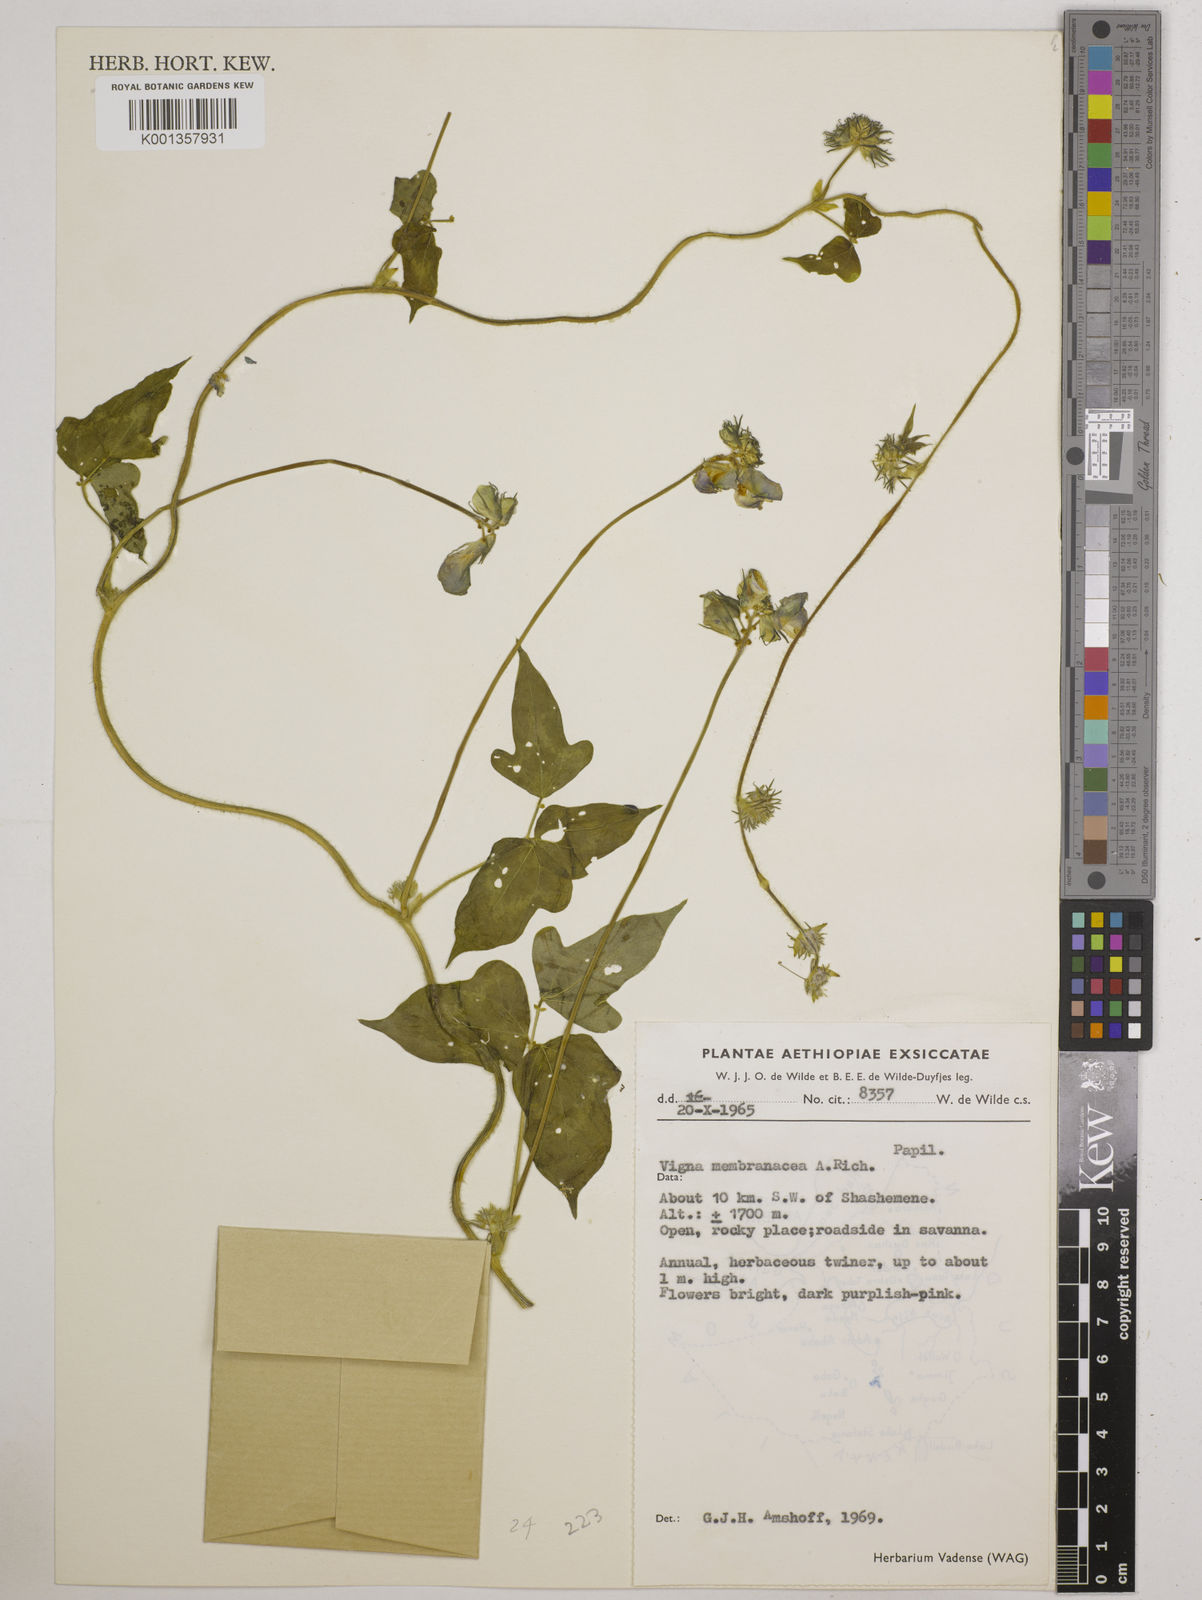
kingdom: Plantae
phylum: Tracheophyta
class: Magnoliopsida
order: Fabales
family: Fabaceae
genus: Vigna
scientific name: Vigna membranacea
